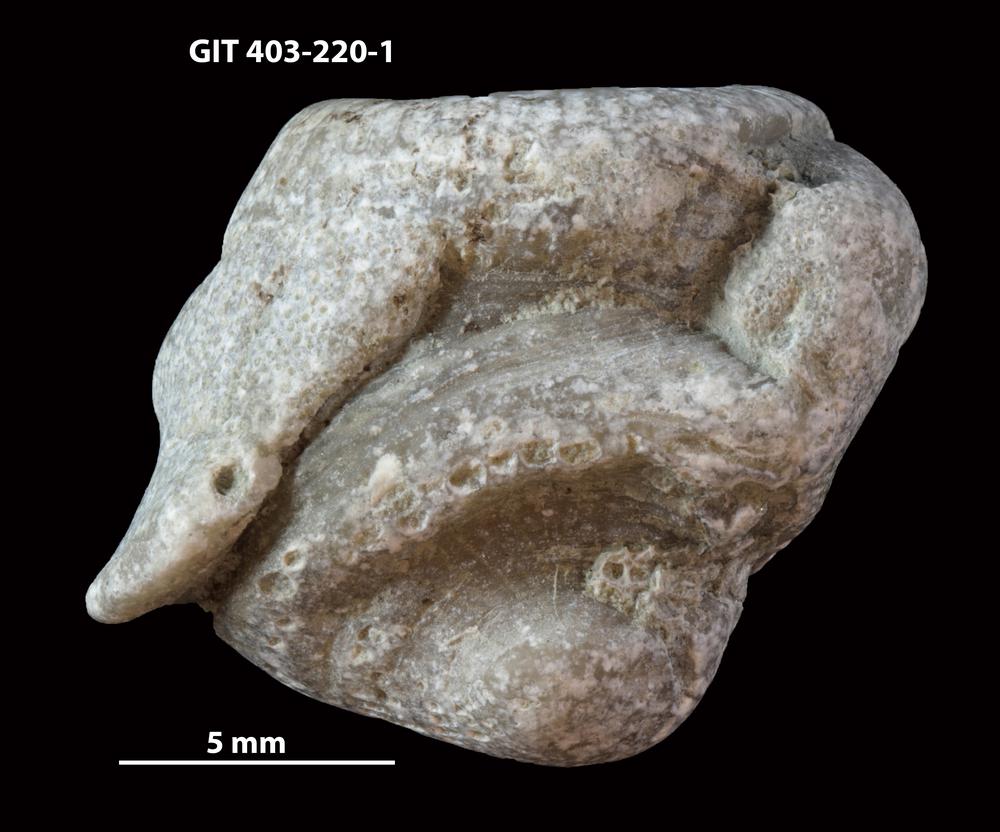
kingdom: Animalia
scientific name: Animalia
